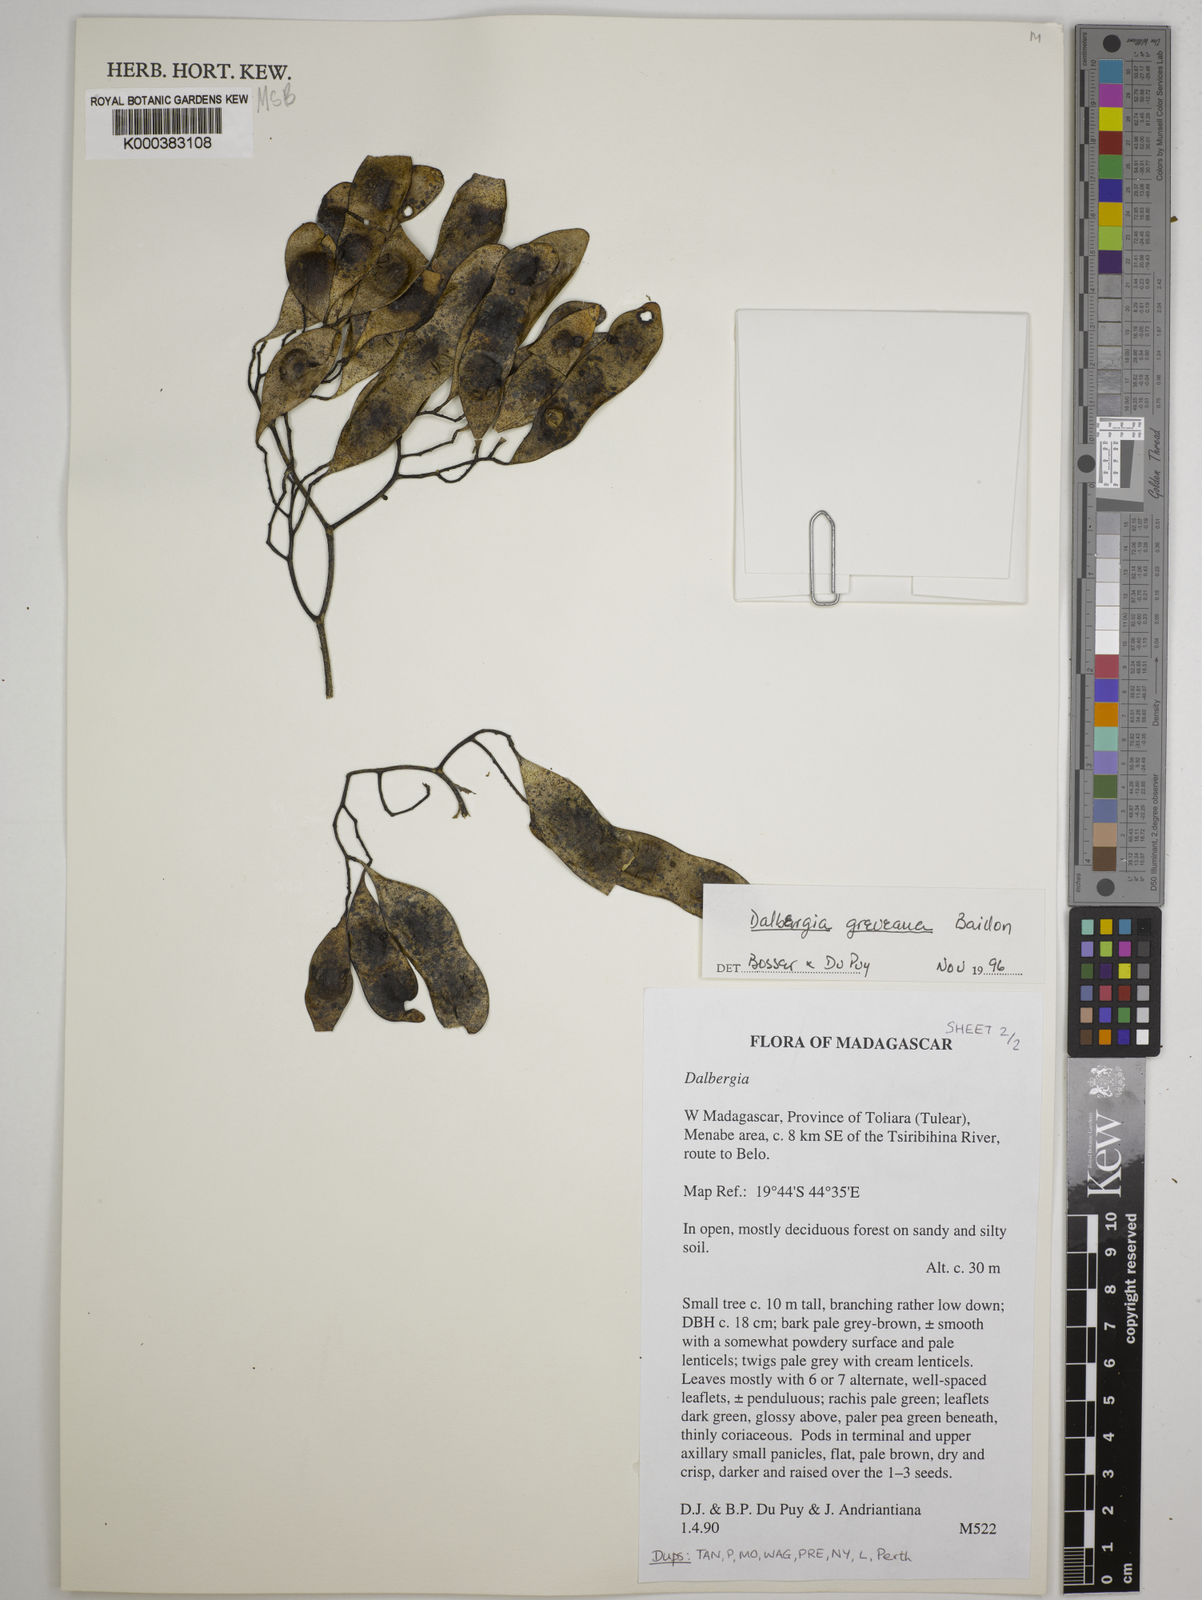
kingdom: Plantae
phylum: Tracheophyta
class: Magnoliopsida
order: Fabales
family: Fabaceae
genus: Dalbergia
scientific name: Dalbergia greveana
